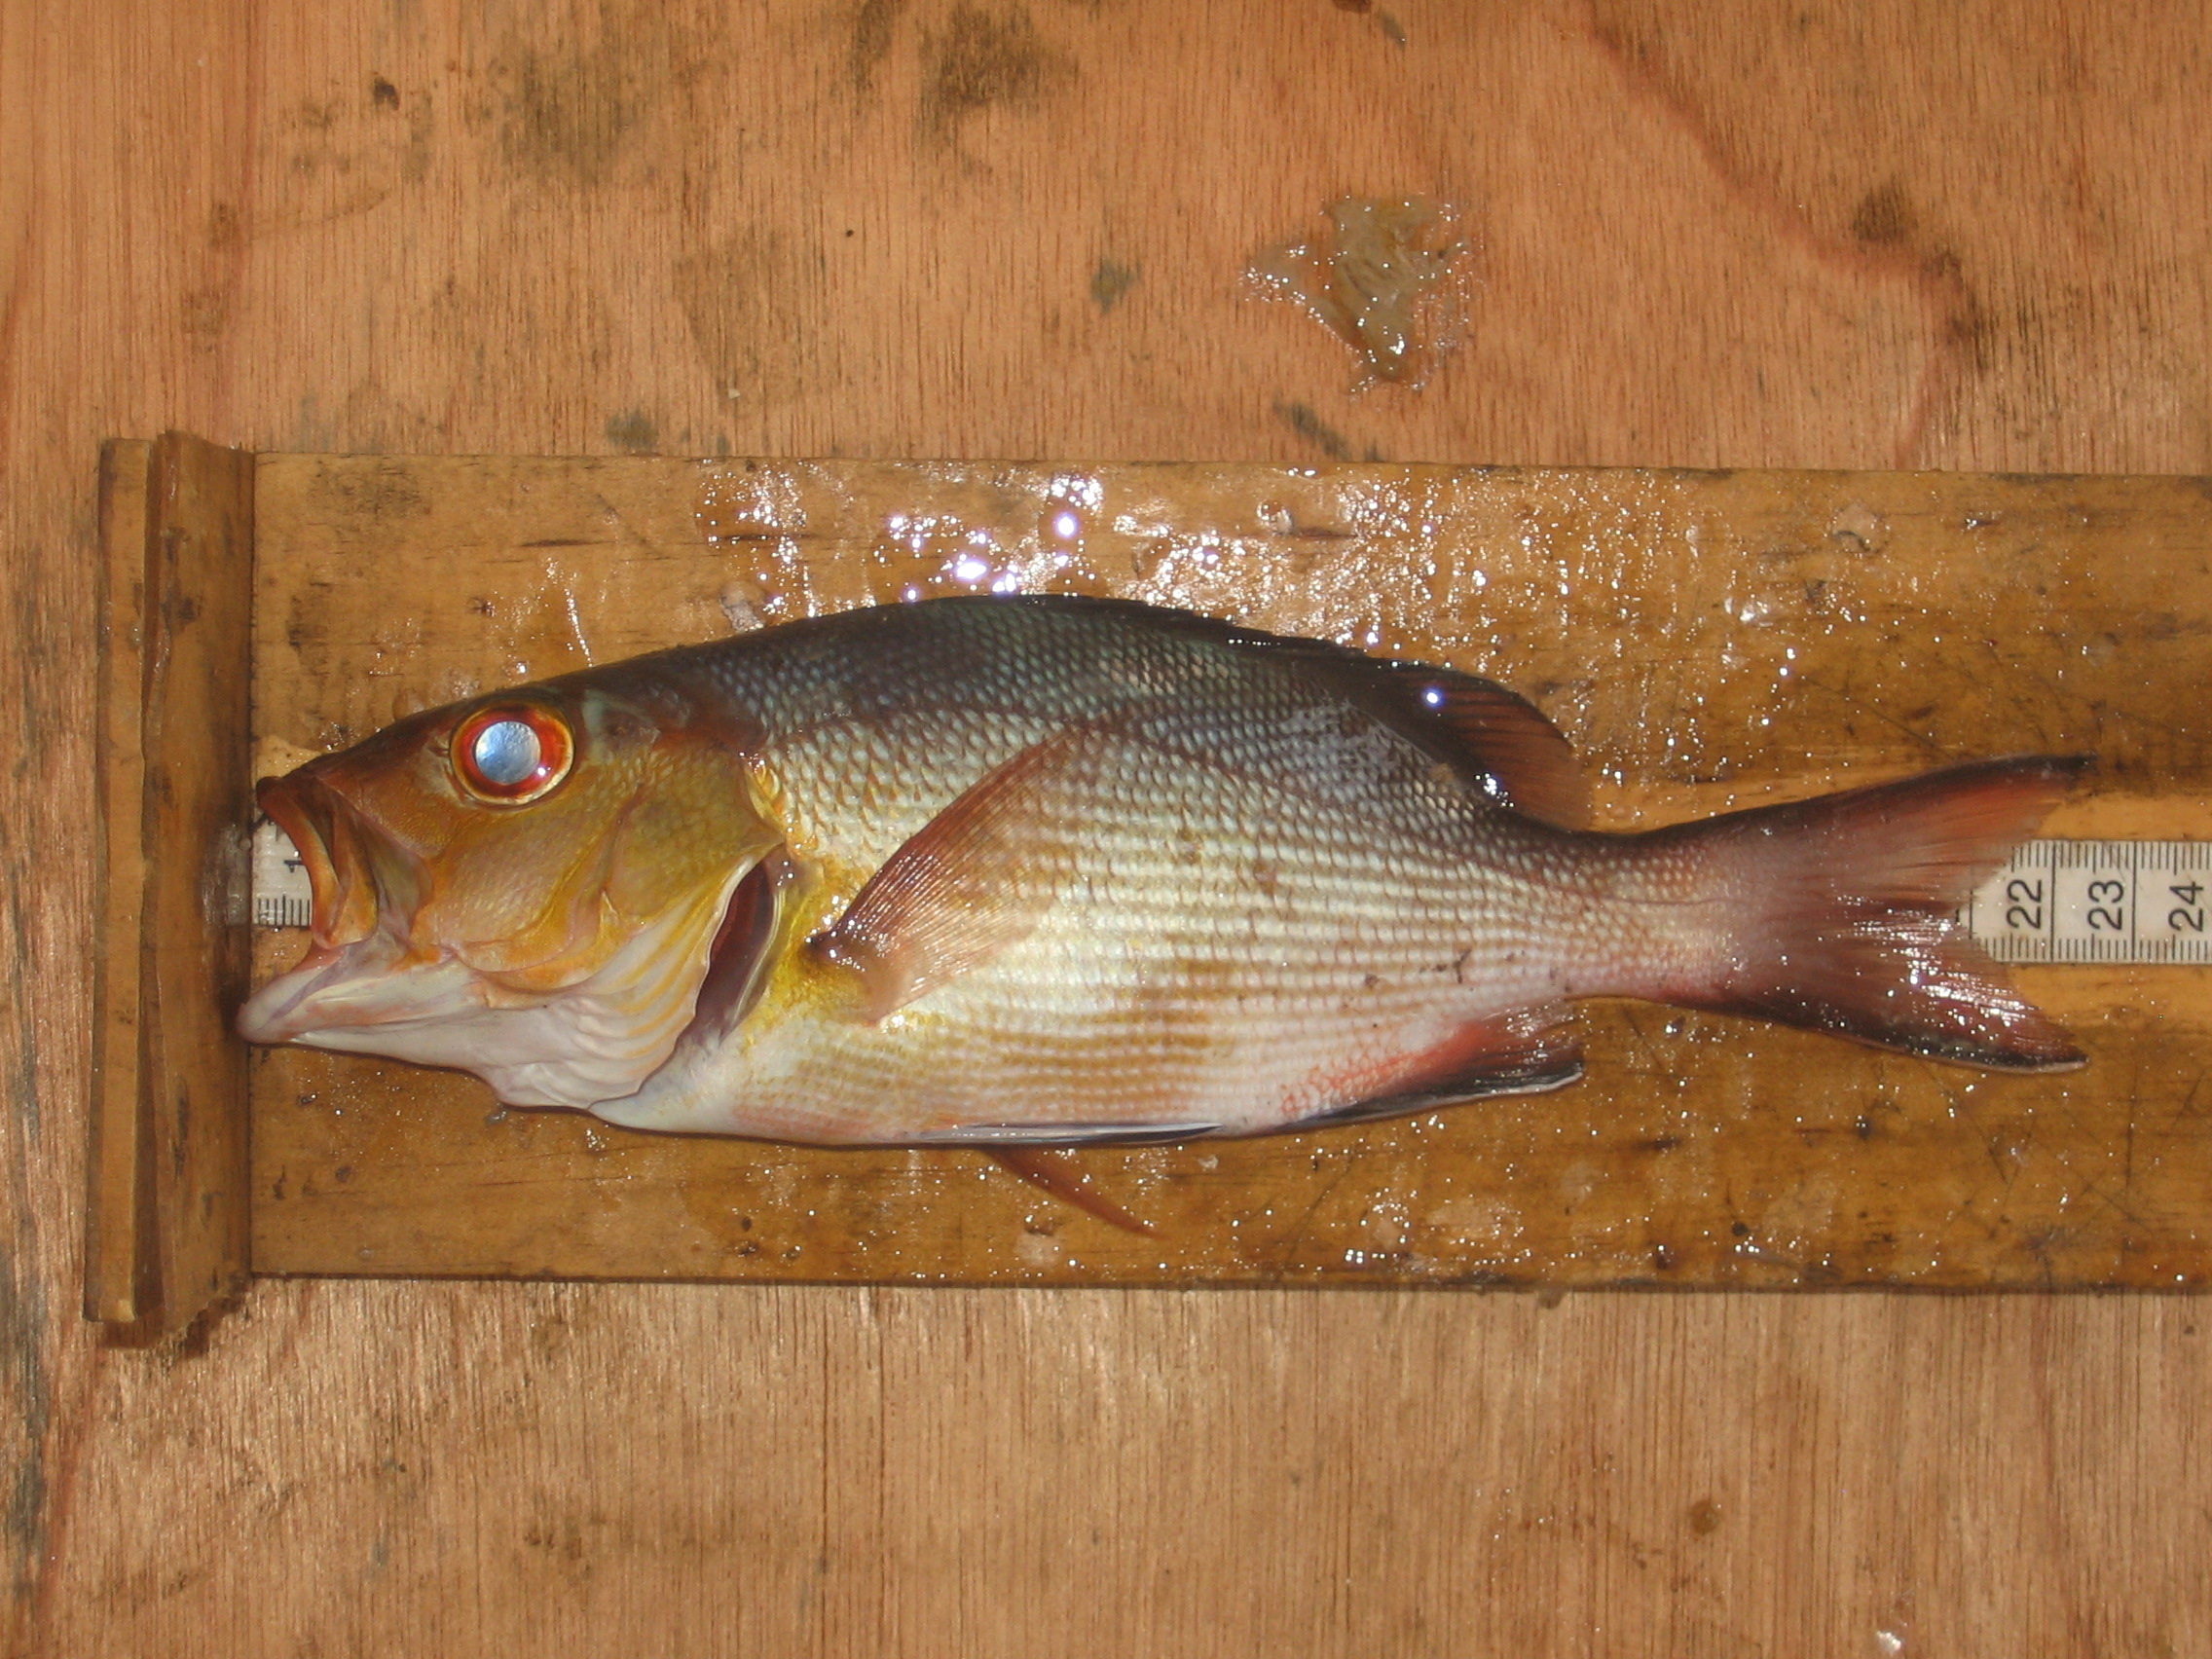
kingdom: Animalia
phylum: Chordata
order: Perciformes
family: Lutjanidae
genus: Lutjanus
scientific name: Lutjanus bohar
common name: Red bass
